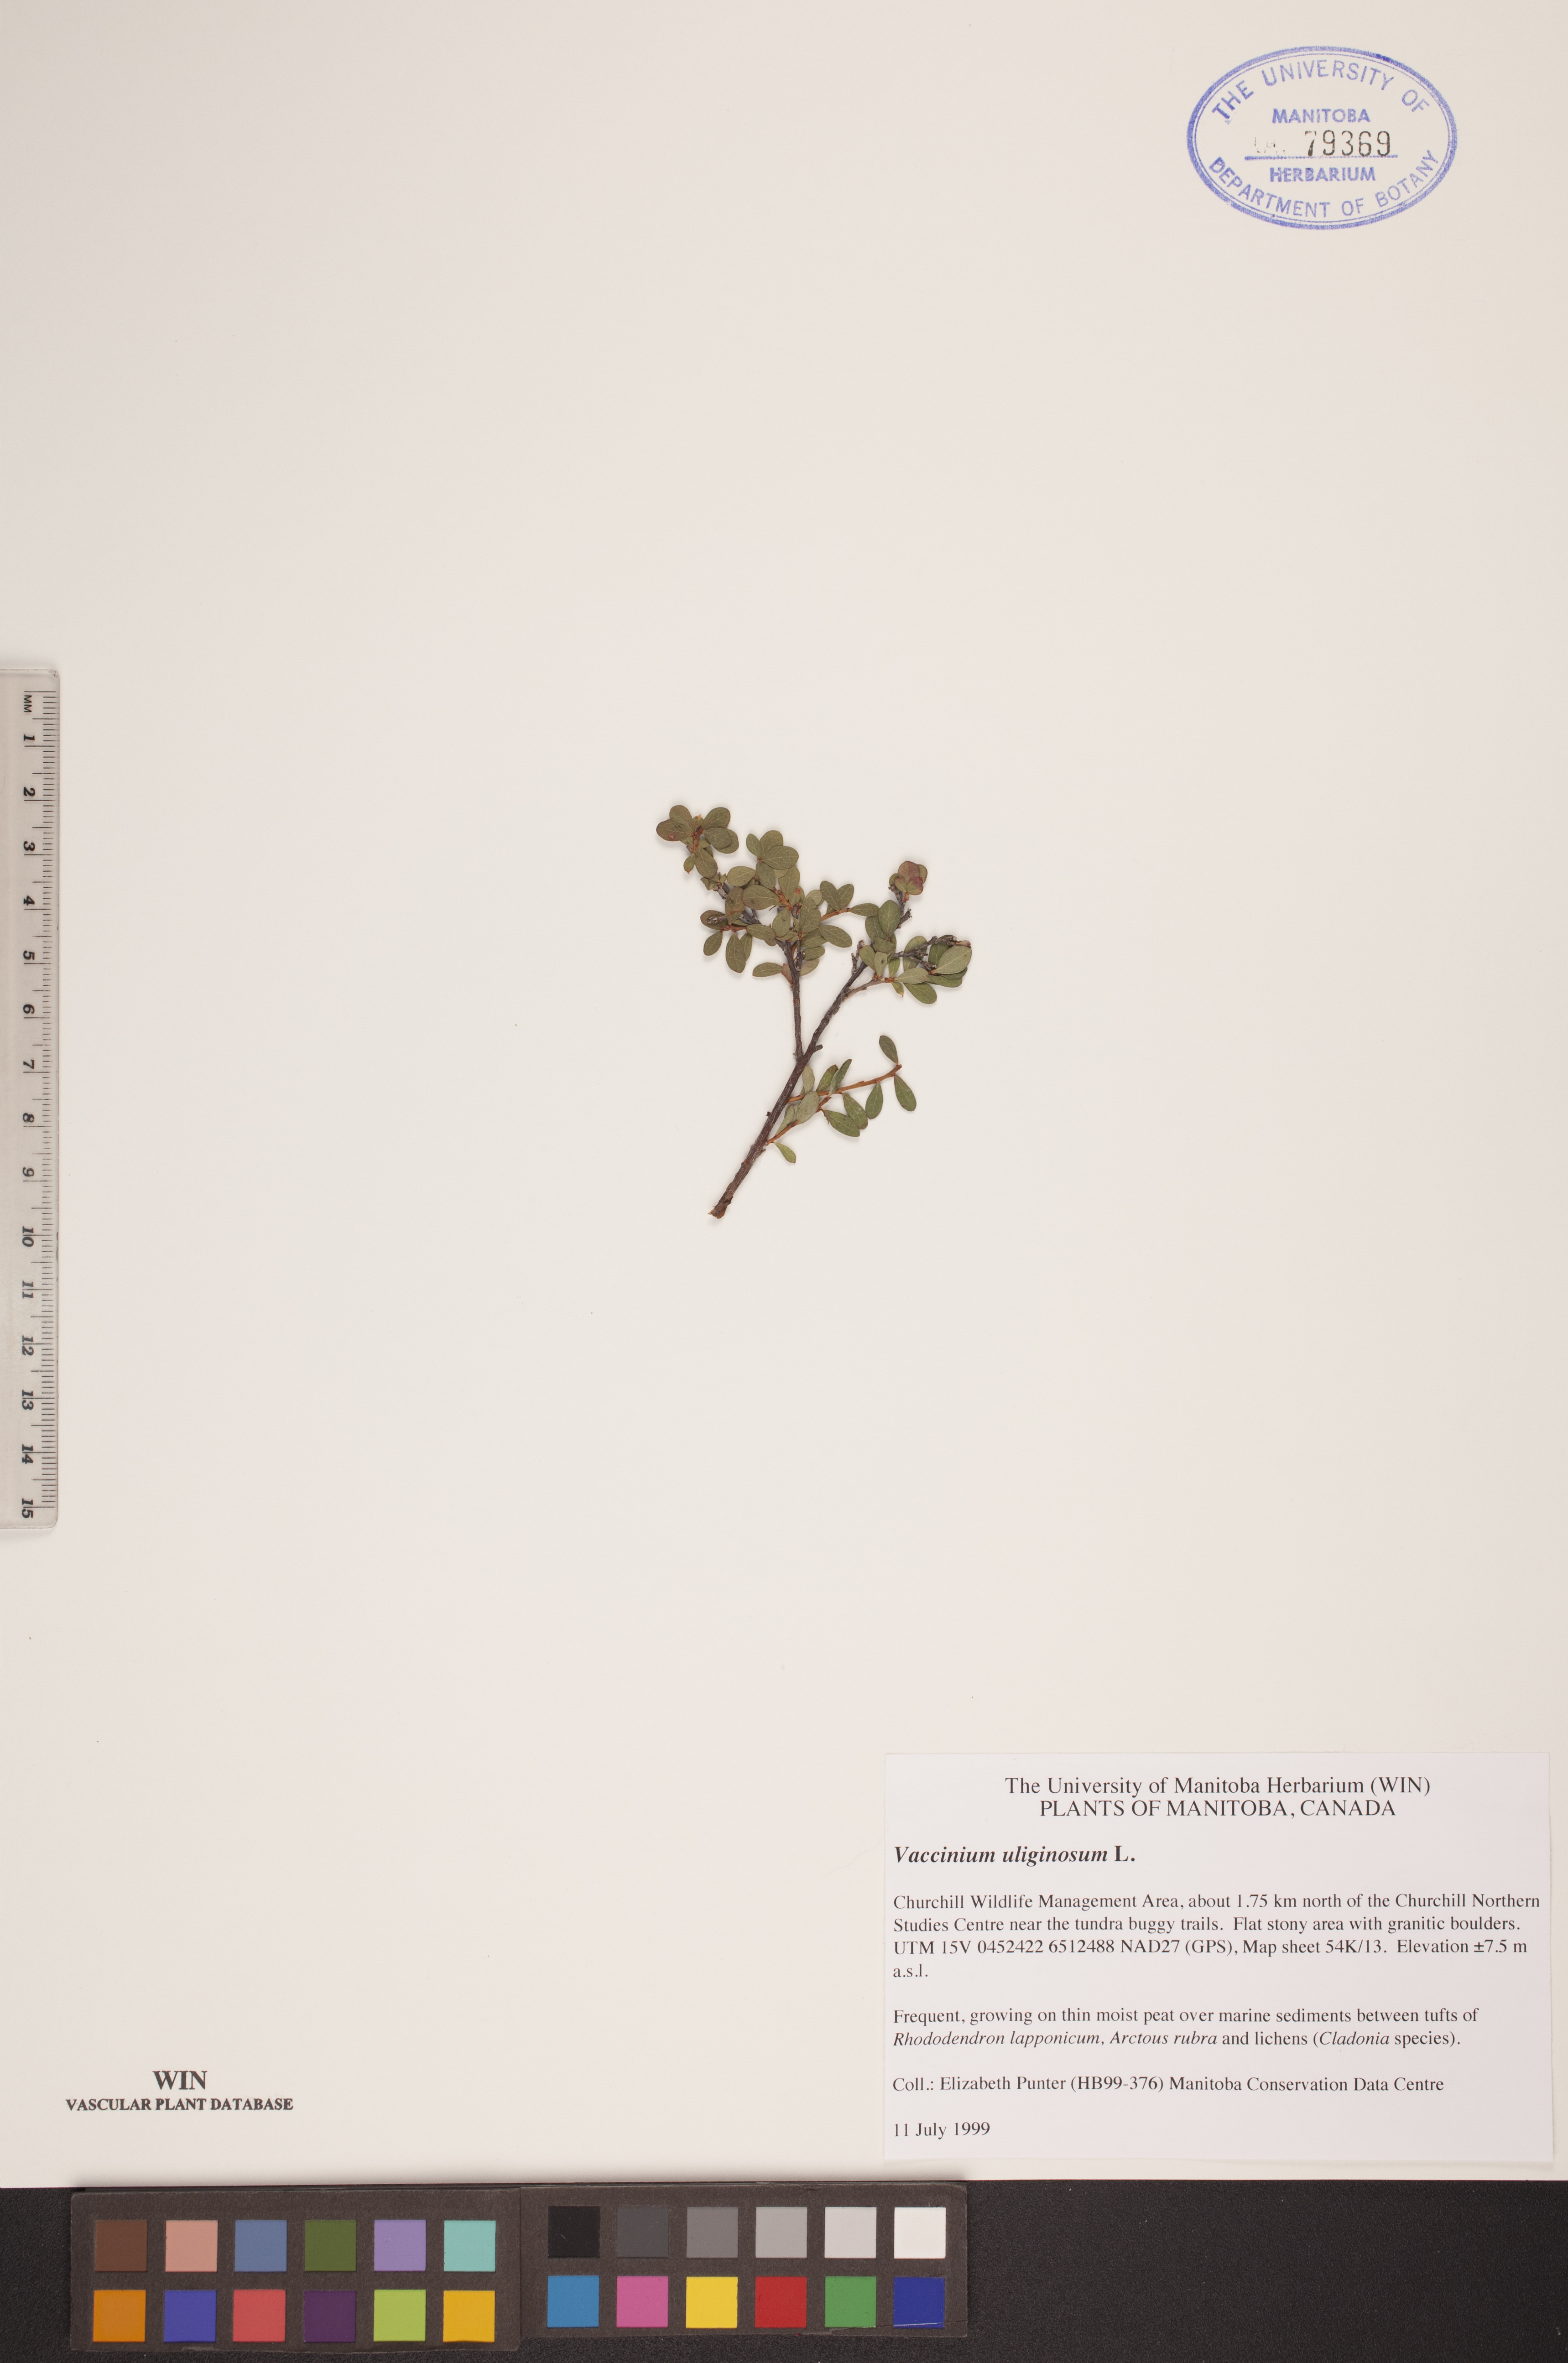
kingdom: Plantae
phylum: Tracheophyta
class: Magnoliopsida
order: Ericales
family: Ericaceae
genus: Vaccinium
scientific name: Vaccinium uliginosum
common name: Bog bilberry
